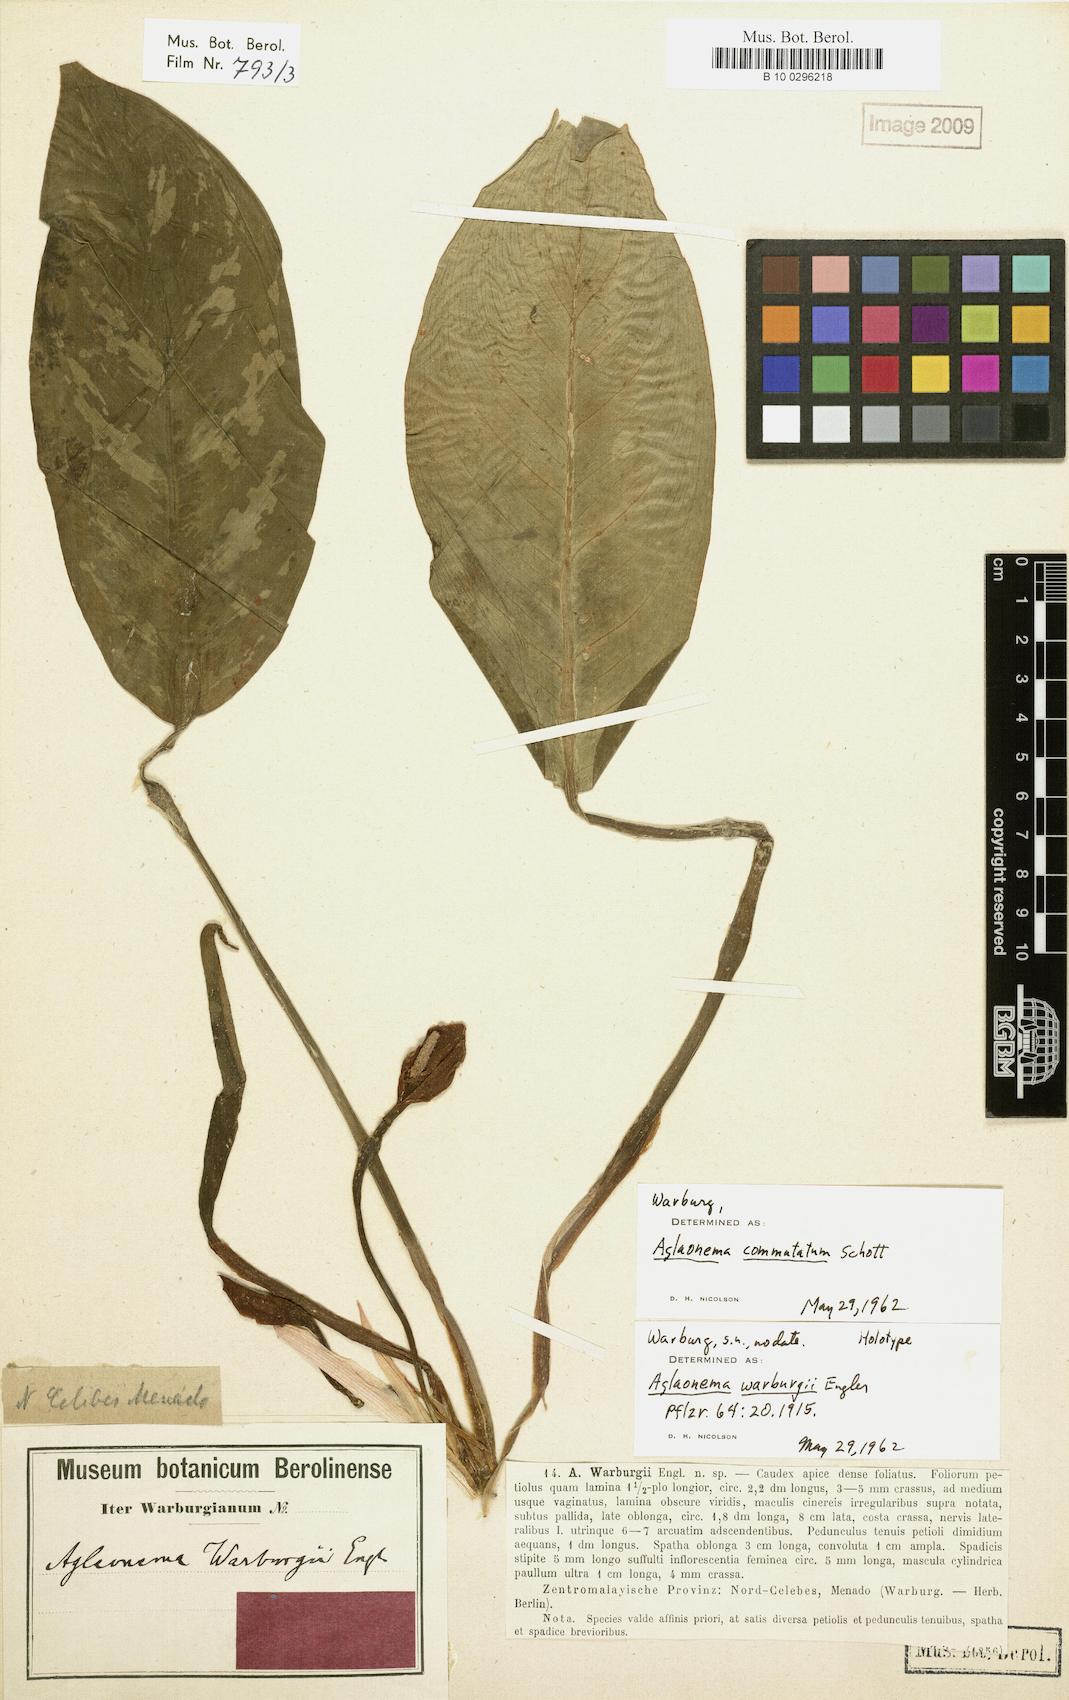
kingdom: Plantae
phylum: Tracheophyta
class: Liliopsida
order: Alismatales
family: Araceae
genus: Aglaonema
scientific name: Aglaonema commutatum
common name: Philippine evergreen
